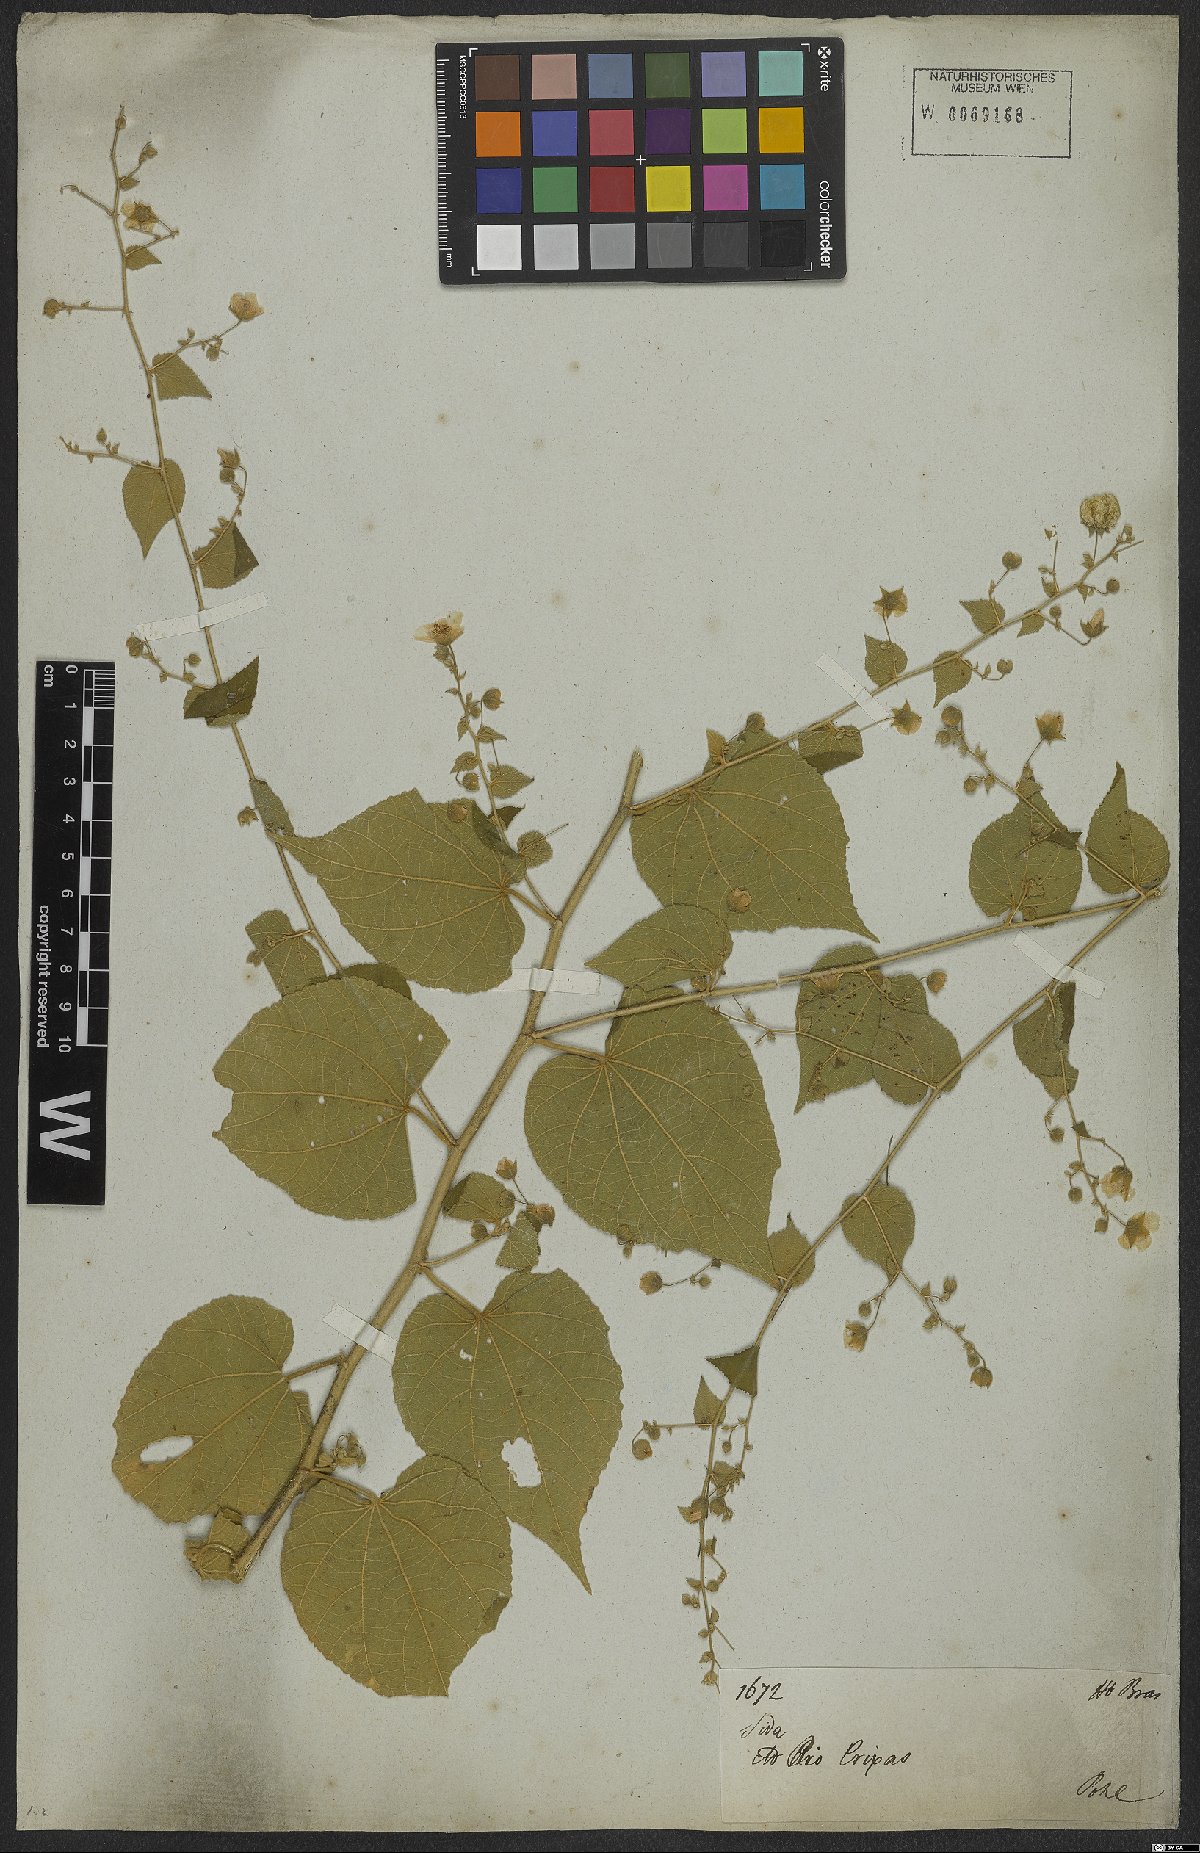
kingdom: Plantae
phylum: Tracheophyta
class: Magnoliopsida
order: Malvales
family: Malvaceae
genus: Herissantia
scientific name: Herissantia crispa
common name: Bladdermallow
